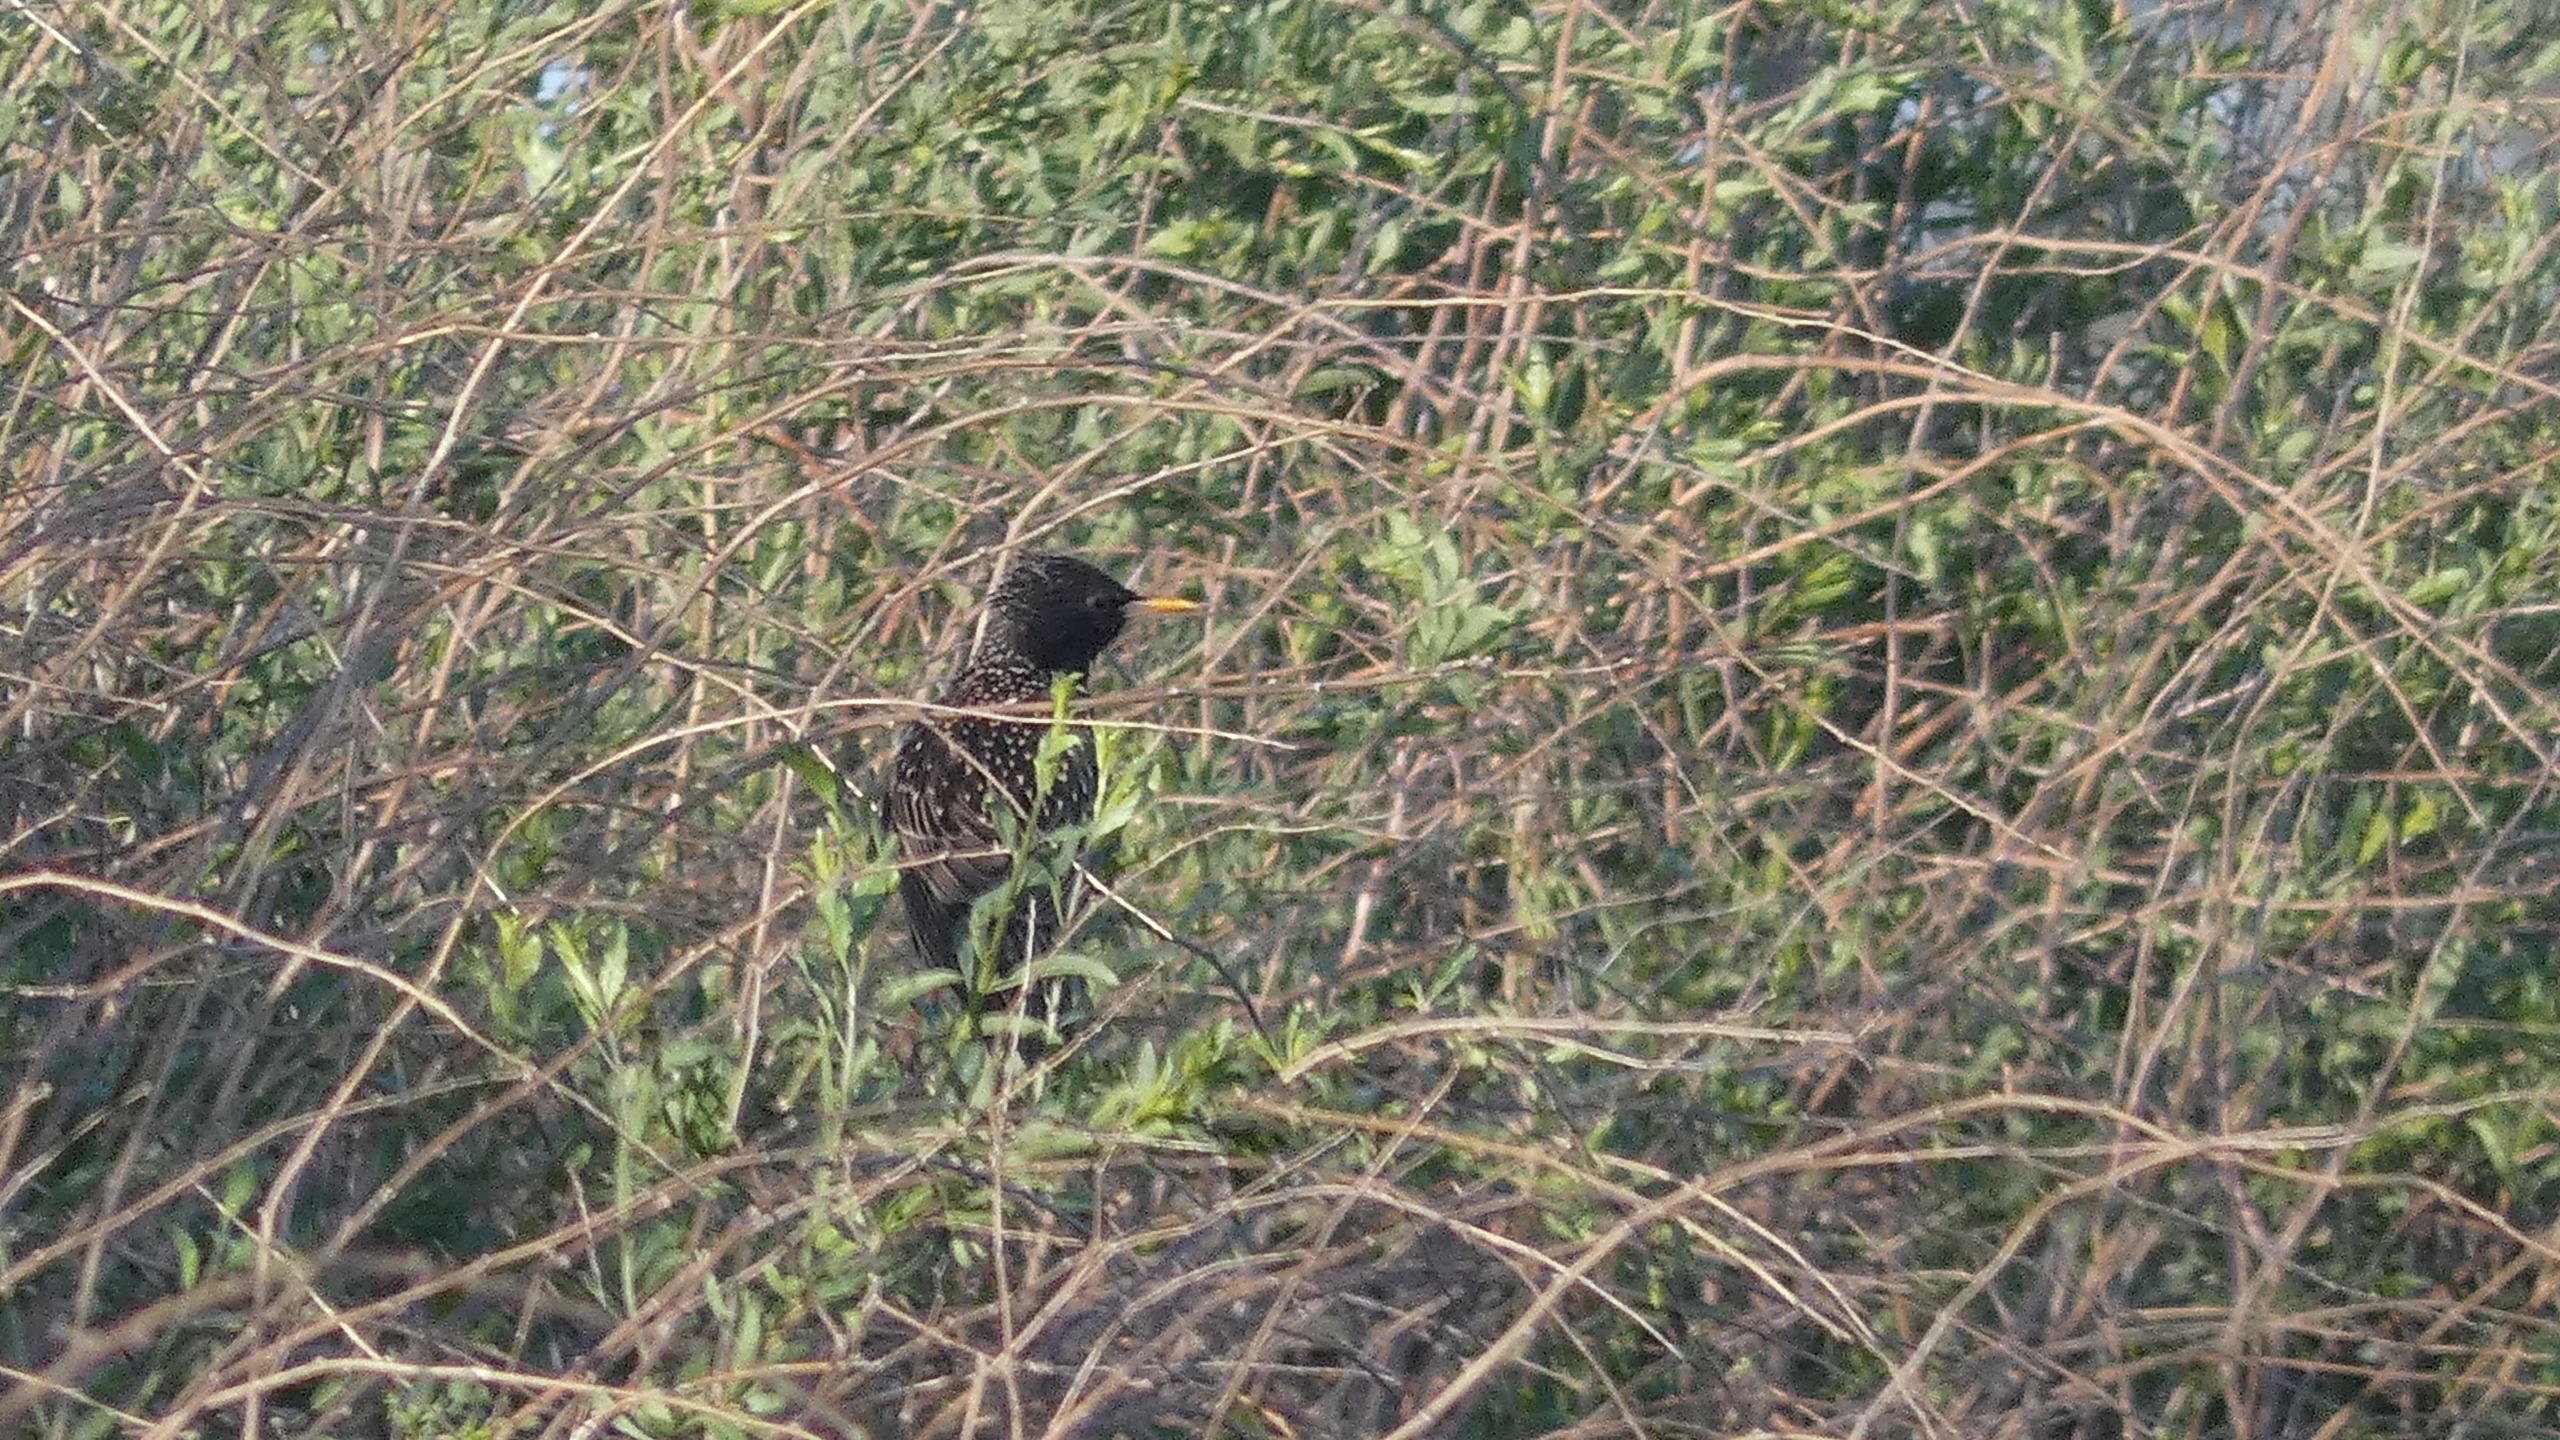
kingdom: Animalia
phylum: Chordata
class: Aves
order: Passeriformes
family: Sturnidae
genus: Sturnus
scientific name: Sturnus vulgaris
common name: Stær
